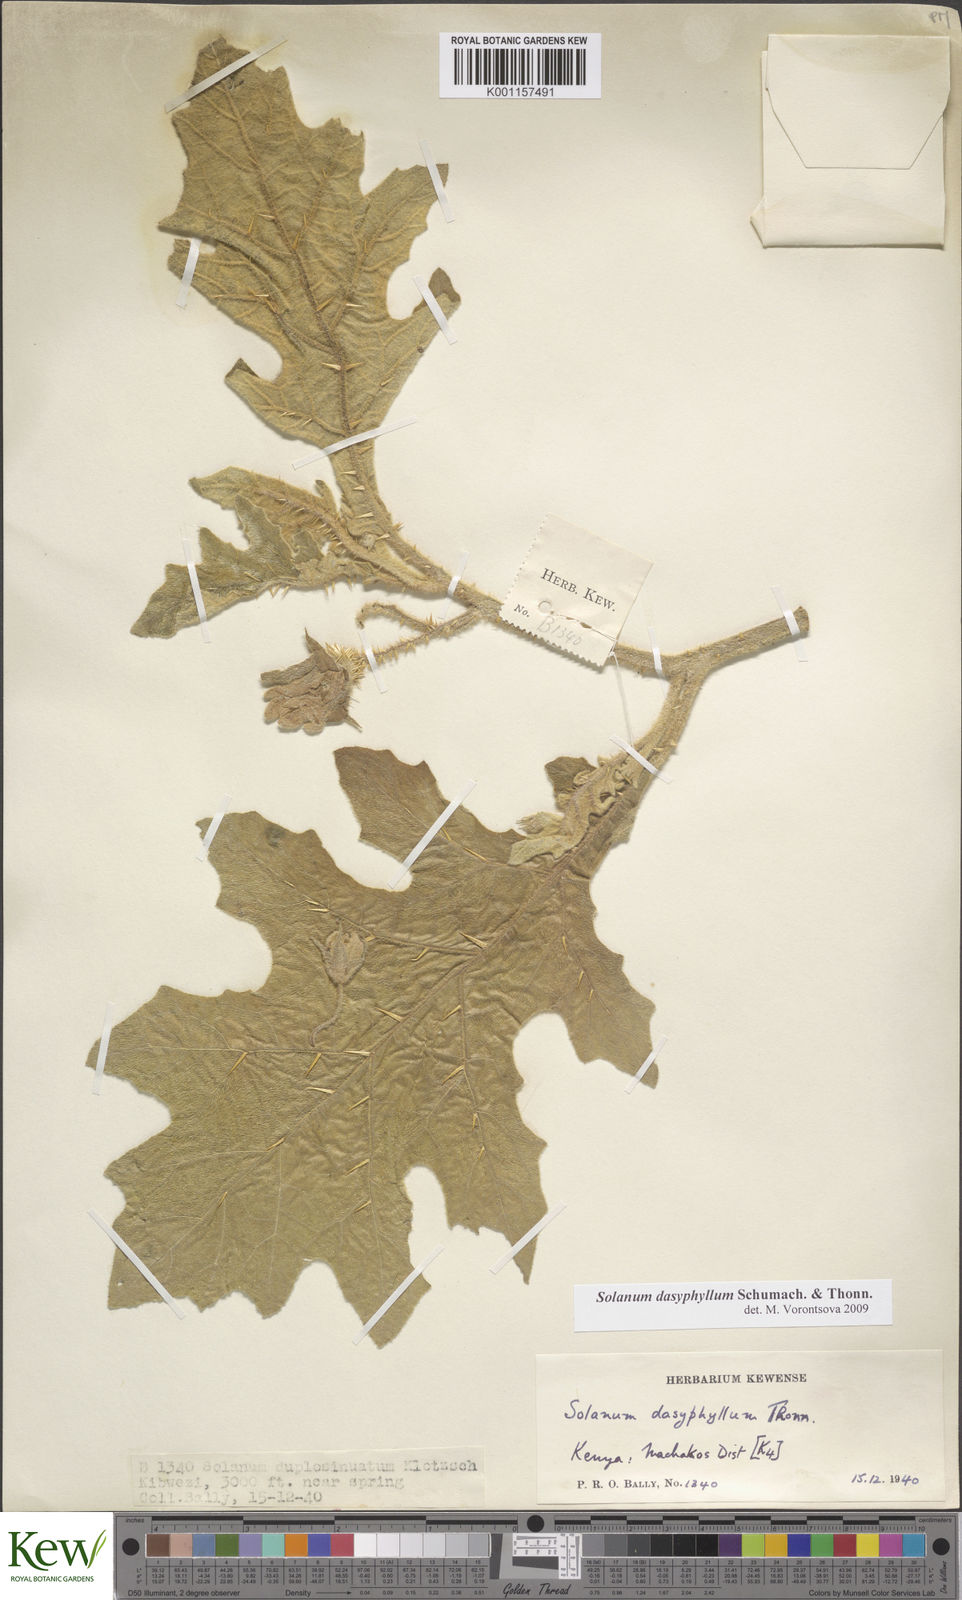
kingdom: Plantae
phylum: Tracheophyta
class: Magnoliopsida
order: Solanales
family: Solanaceae
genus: Solanum
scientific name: Solanum dasyphyllum
